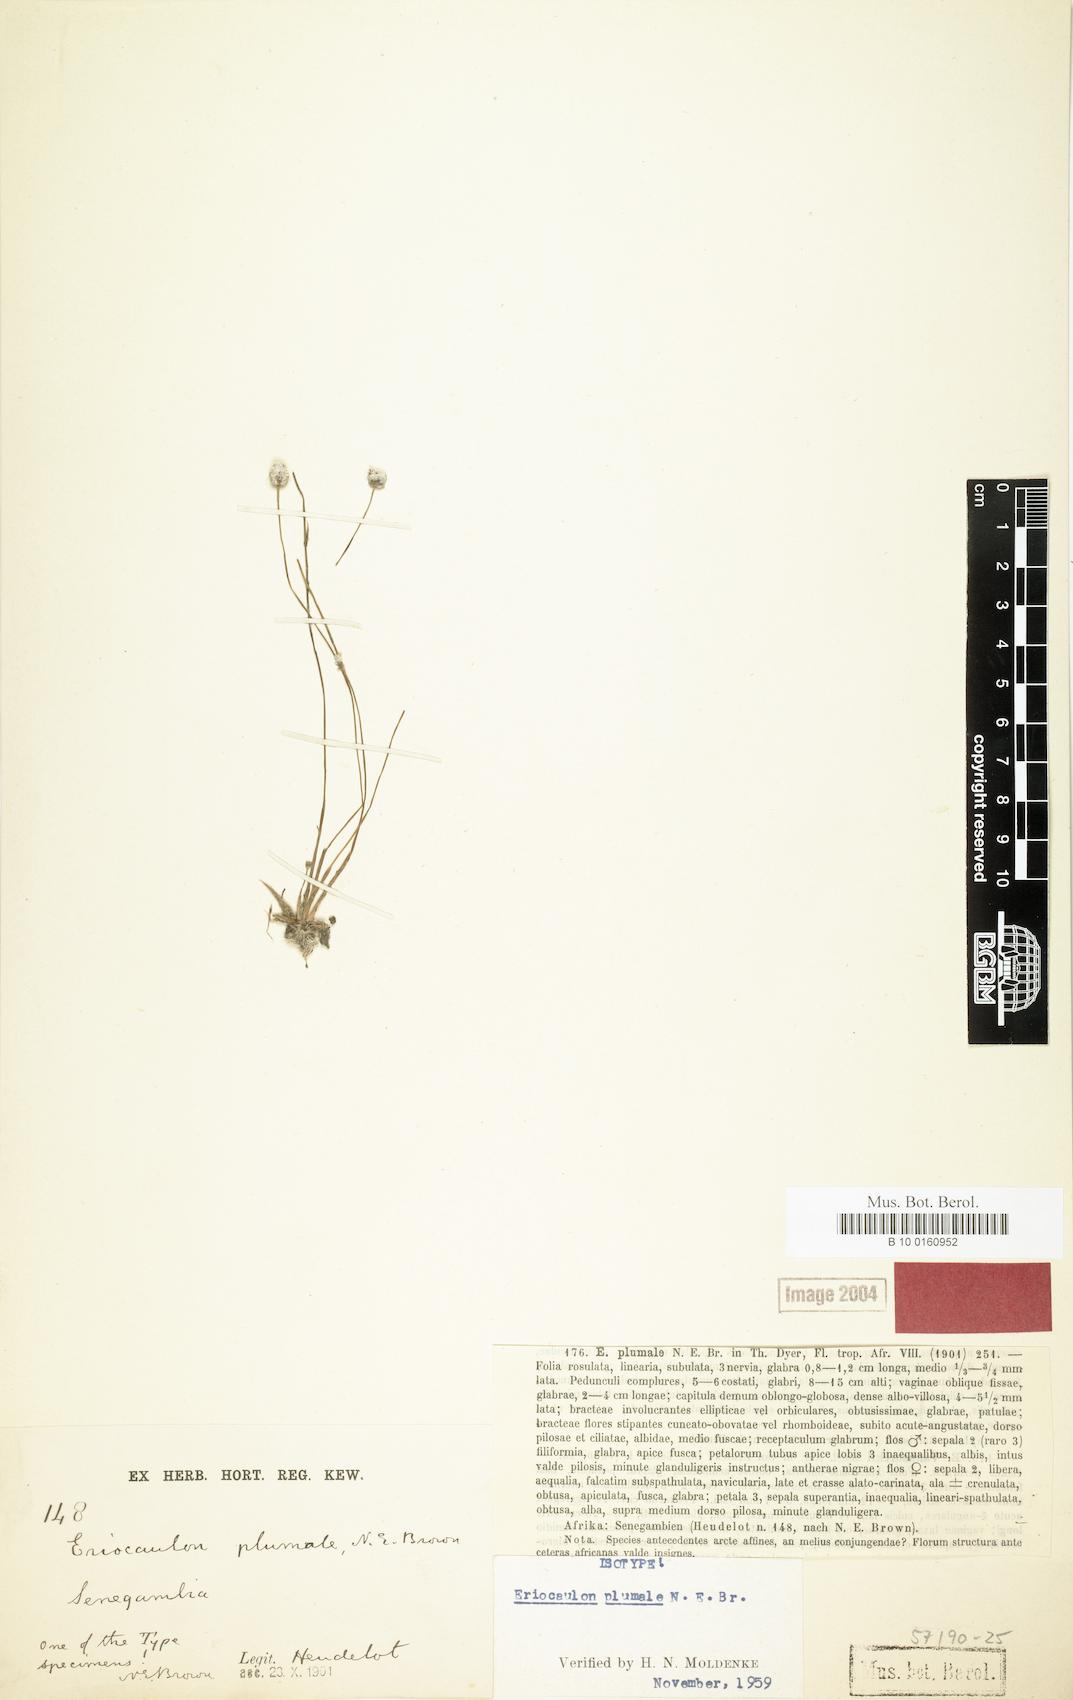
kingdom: Plantae
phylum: Tracheophyta
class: Liliopsida
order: Poales
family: Eriocaulaceae
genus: Eriocaulon
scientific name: Eriocaulon plumale
